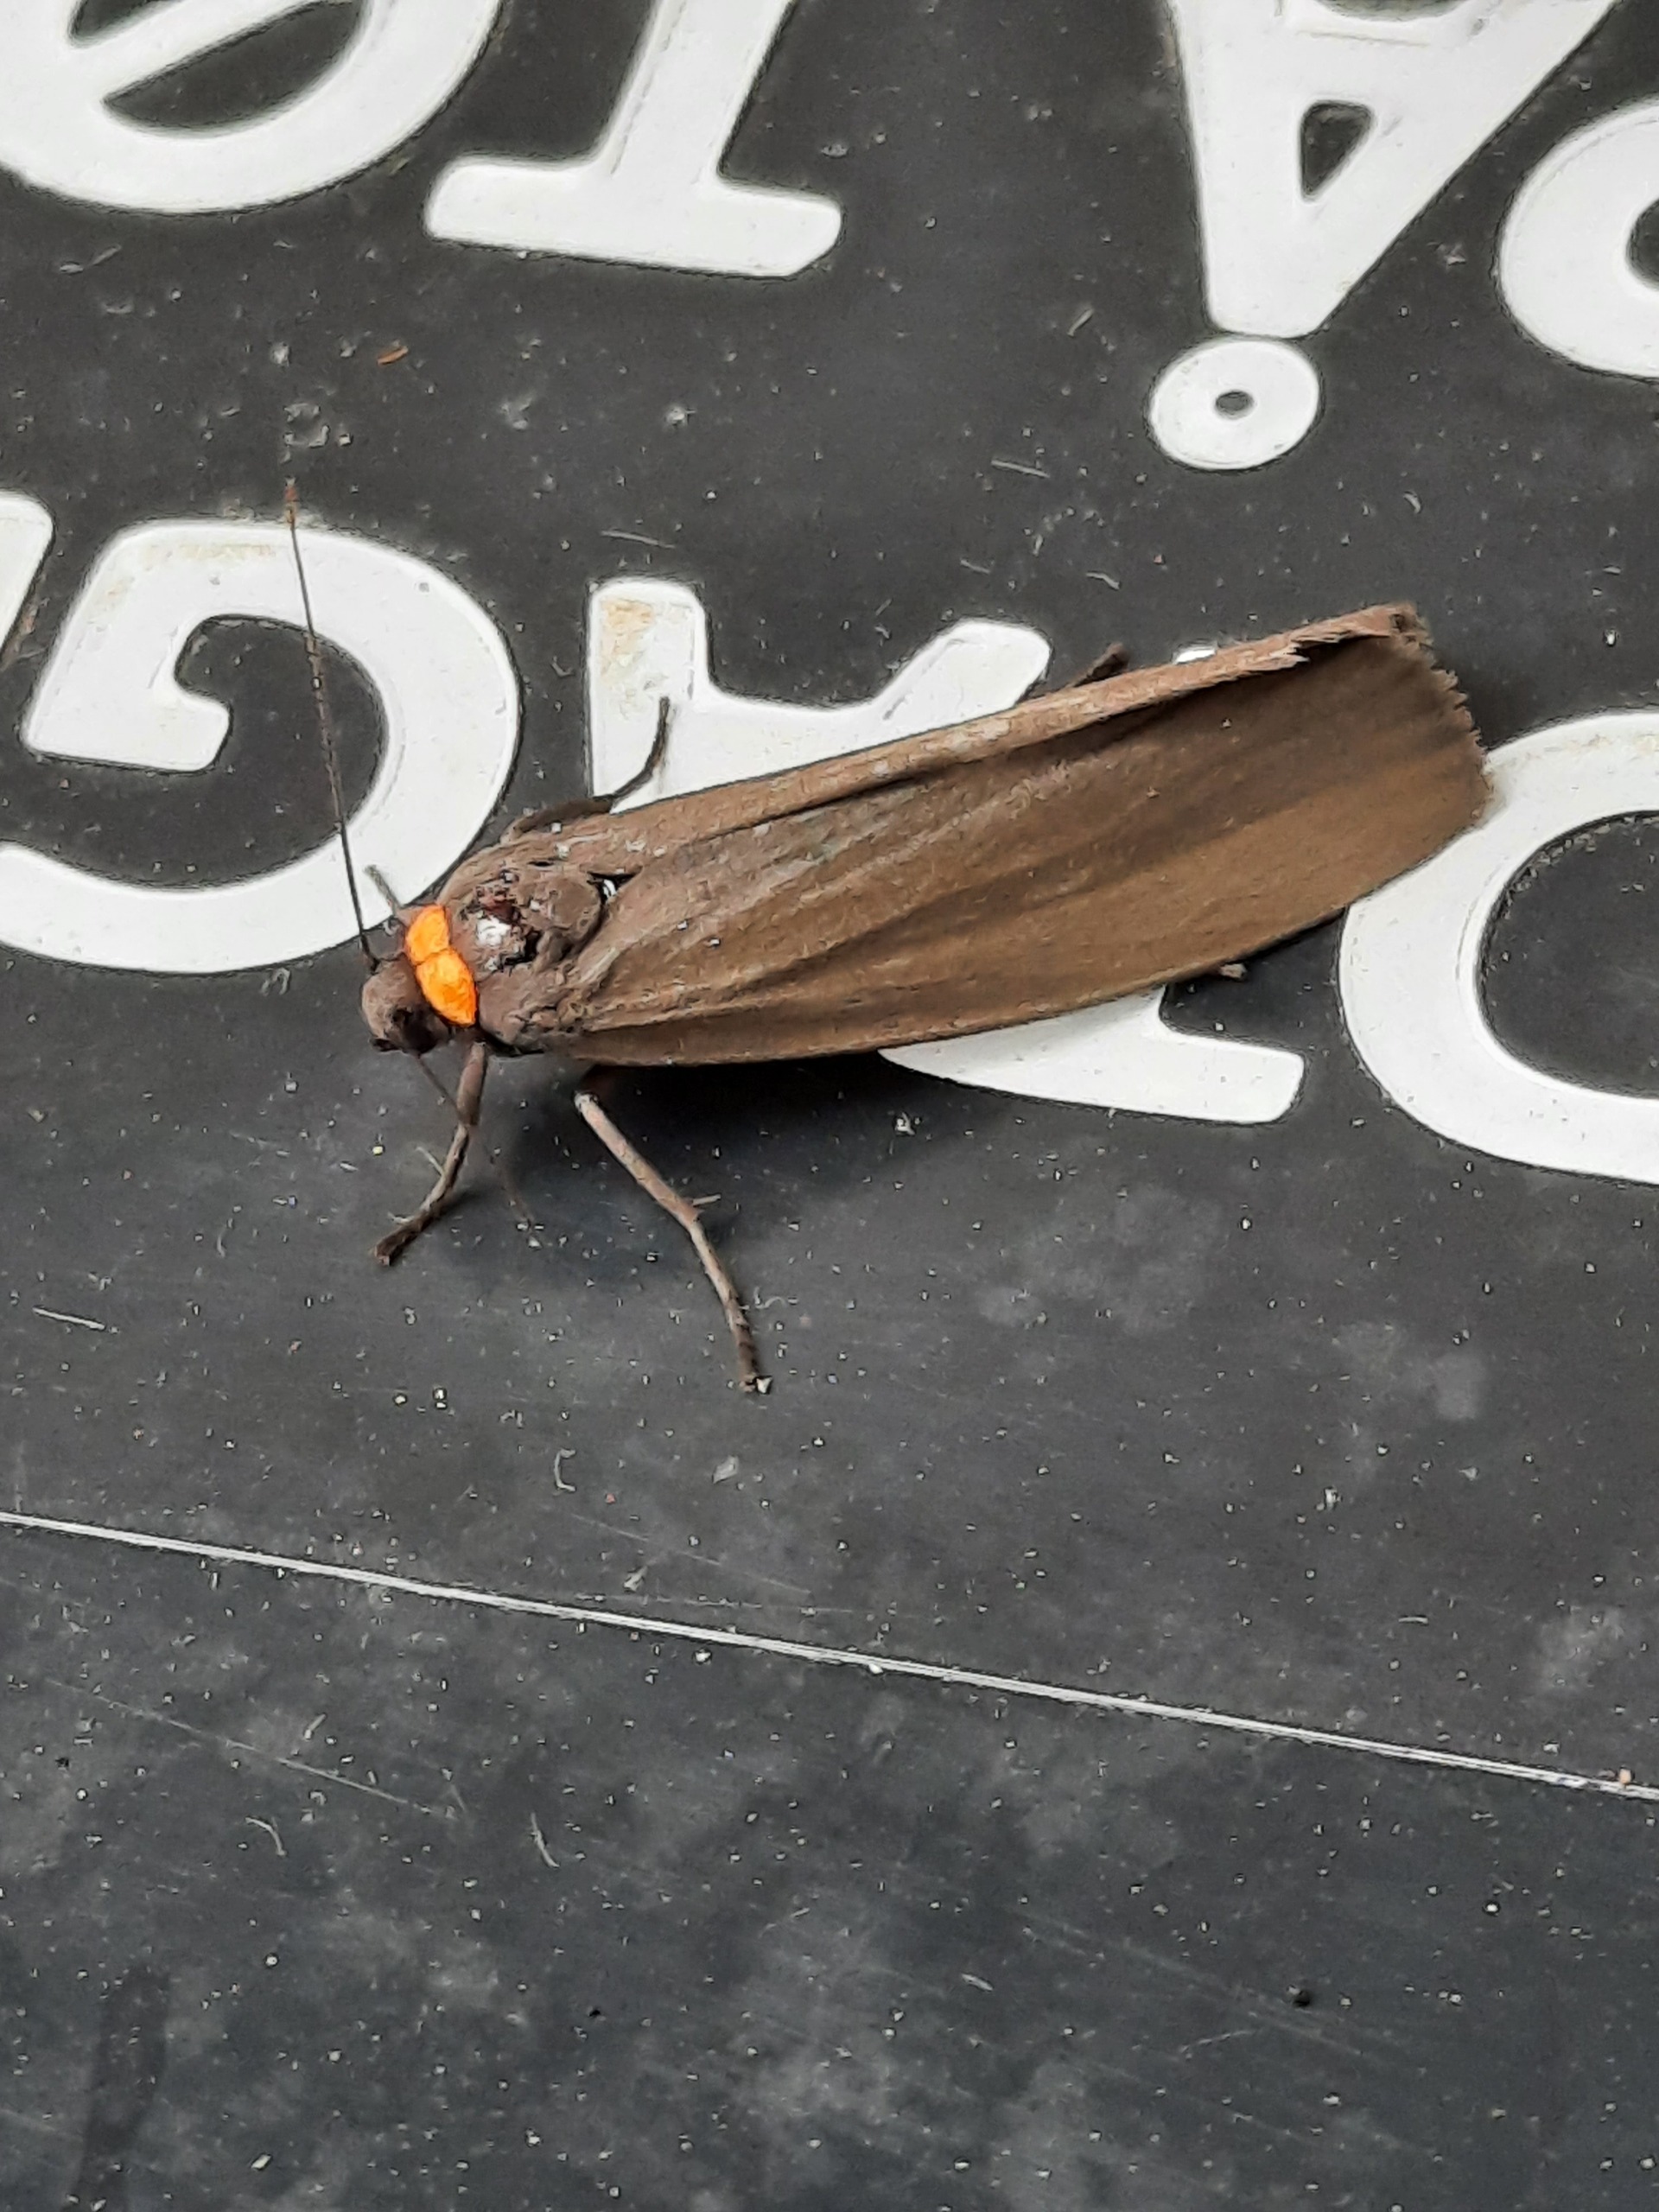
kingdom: Animalia
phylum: Arthropoda
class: Insecta
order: Lepidoptera
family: Erebidae
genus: Atolmis
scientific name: Atolmis rubricollis
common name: Blodnakke
